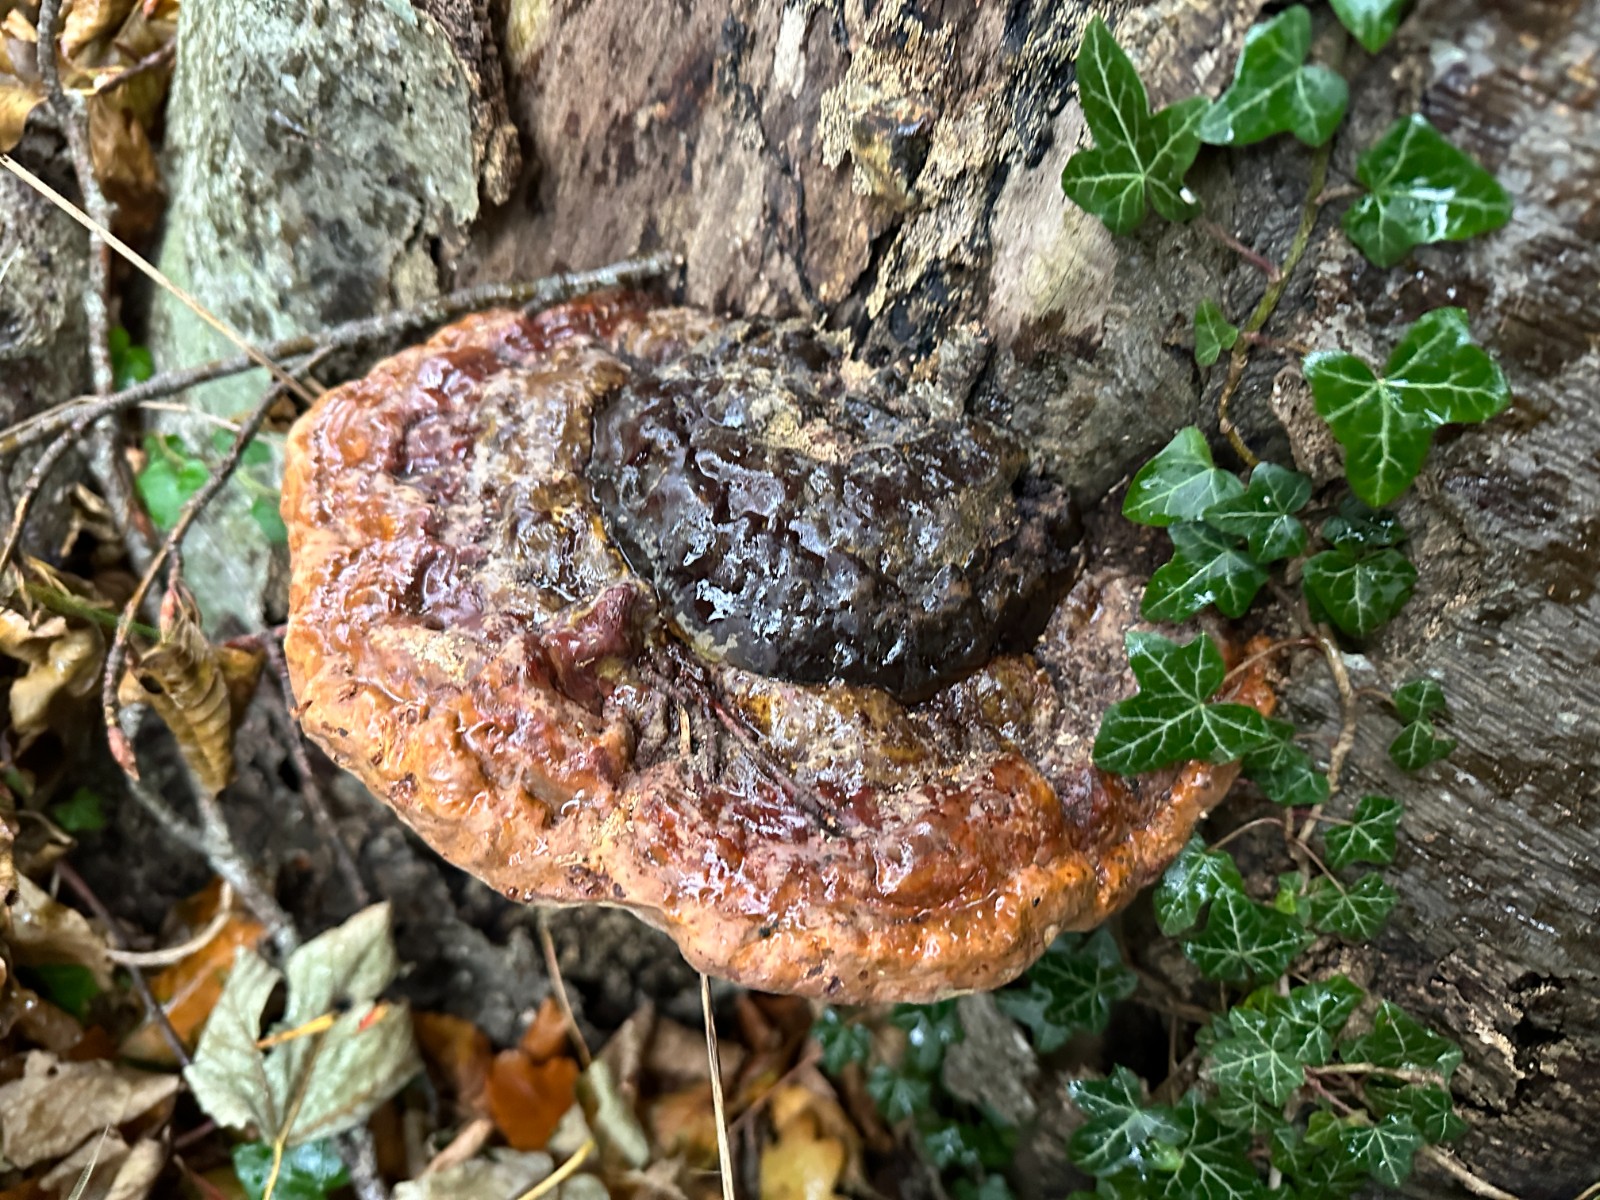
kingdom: Fungi
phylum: Basidiomycota
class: Agaricomycetes
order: Polyporales
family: Polyporaceae
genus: Ganoderma
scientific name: Ganoderma pfeifferi
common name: kobberrød lakporesvamp
